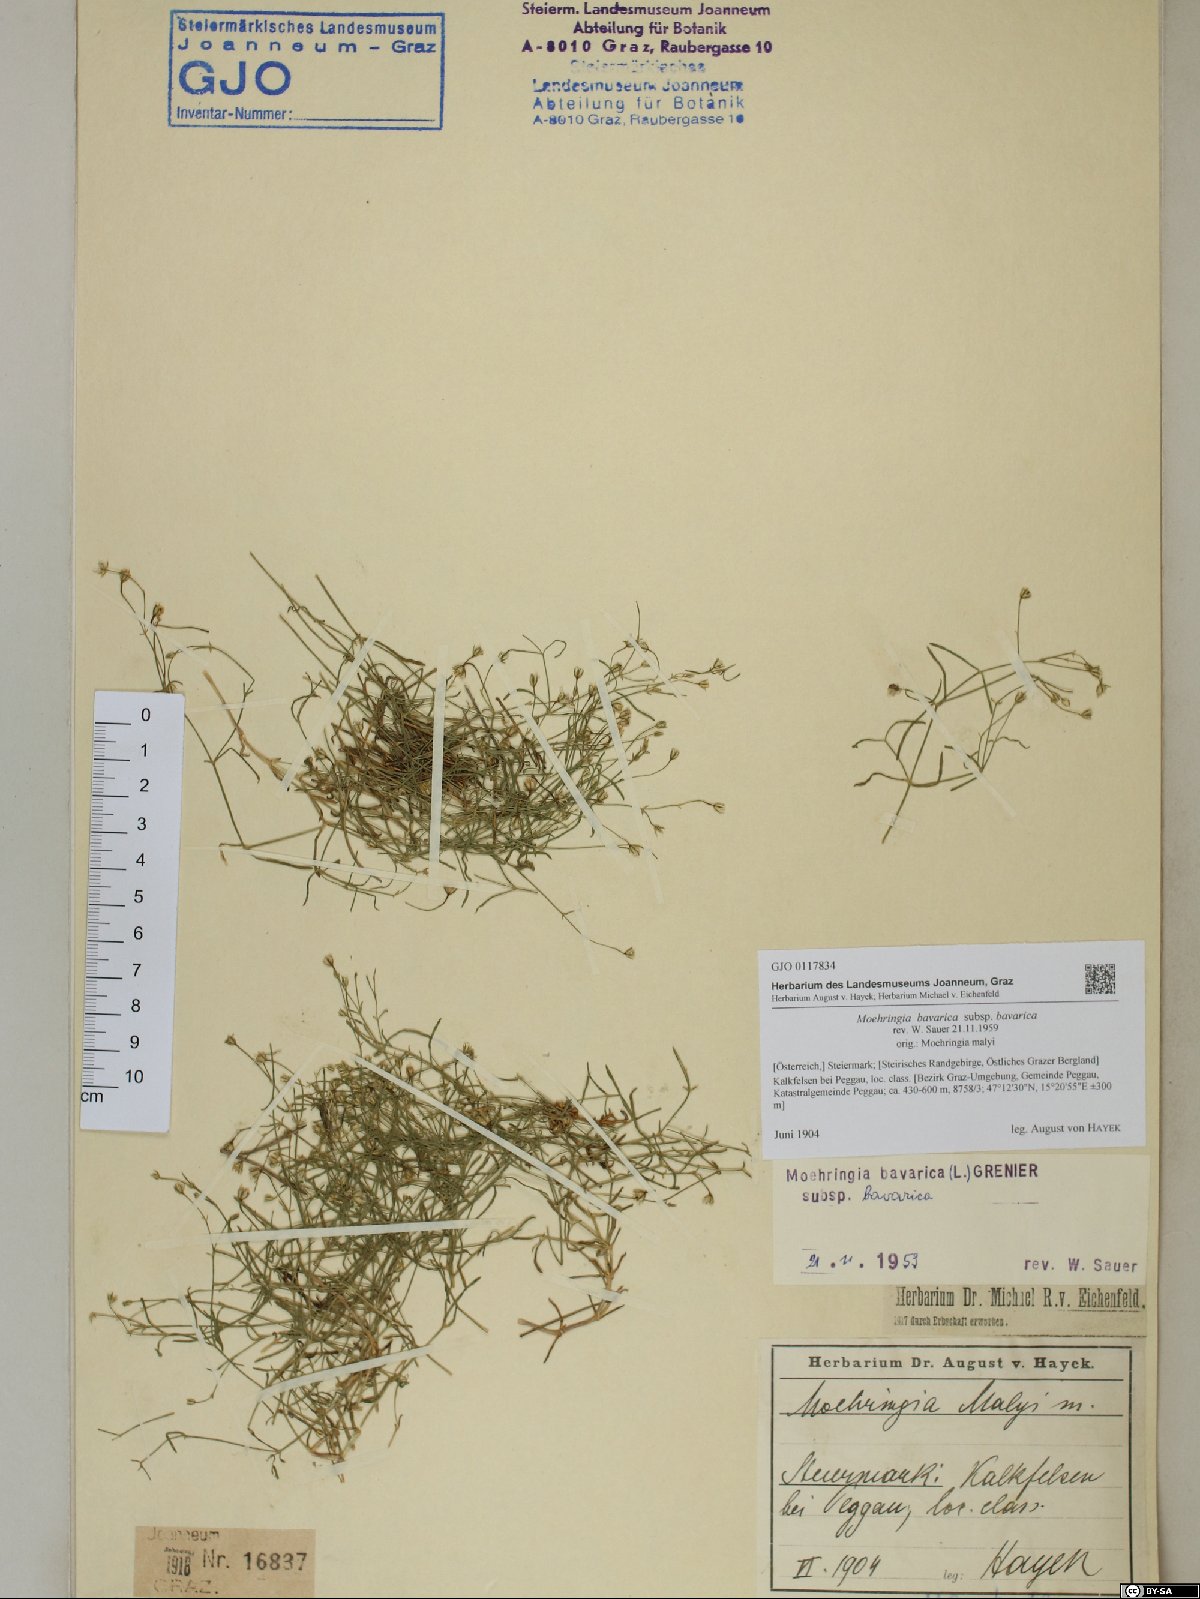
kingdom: Plantae
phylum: Tracheophyta
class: Magnoliopsida
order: Caryophyllales
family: Caryophyllaceae
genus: Moehringia
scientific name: Moehringia bavarica
